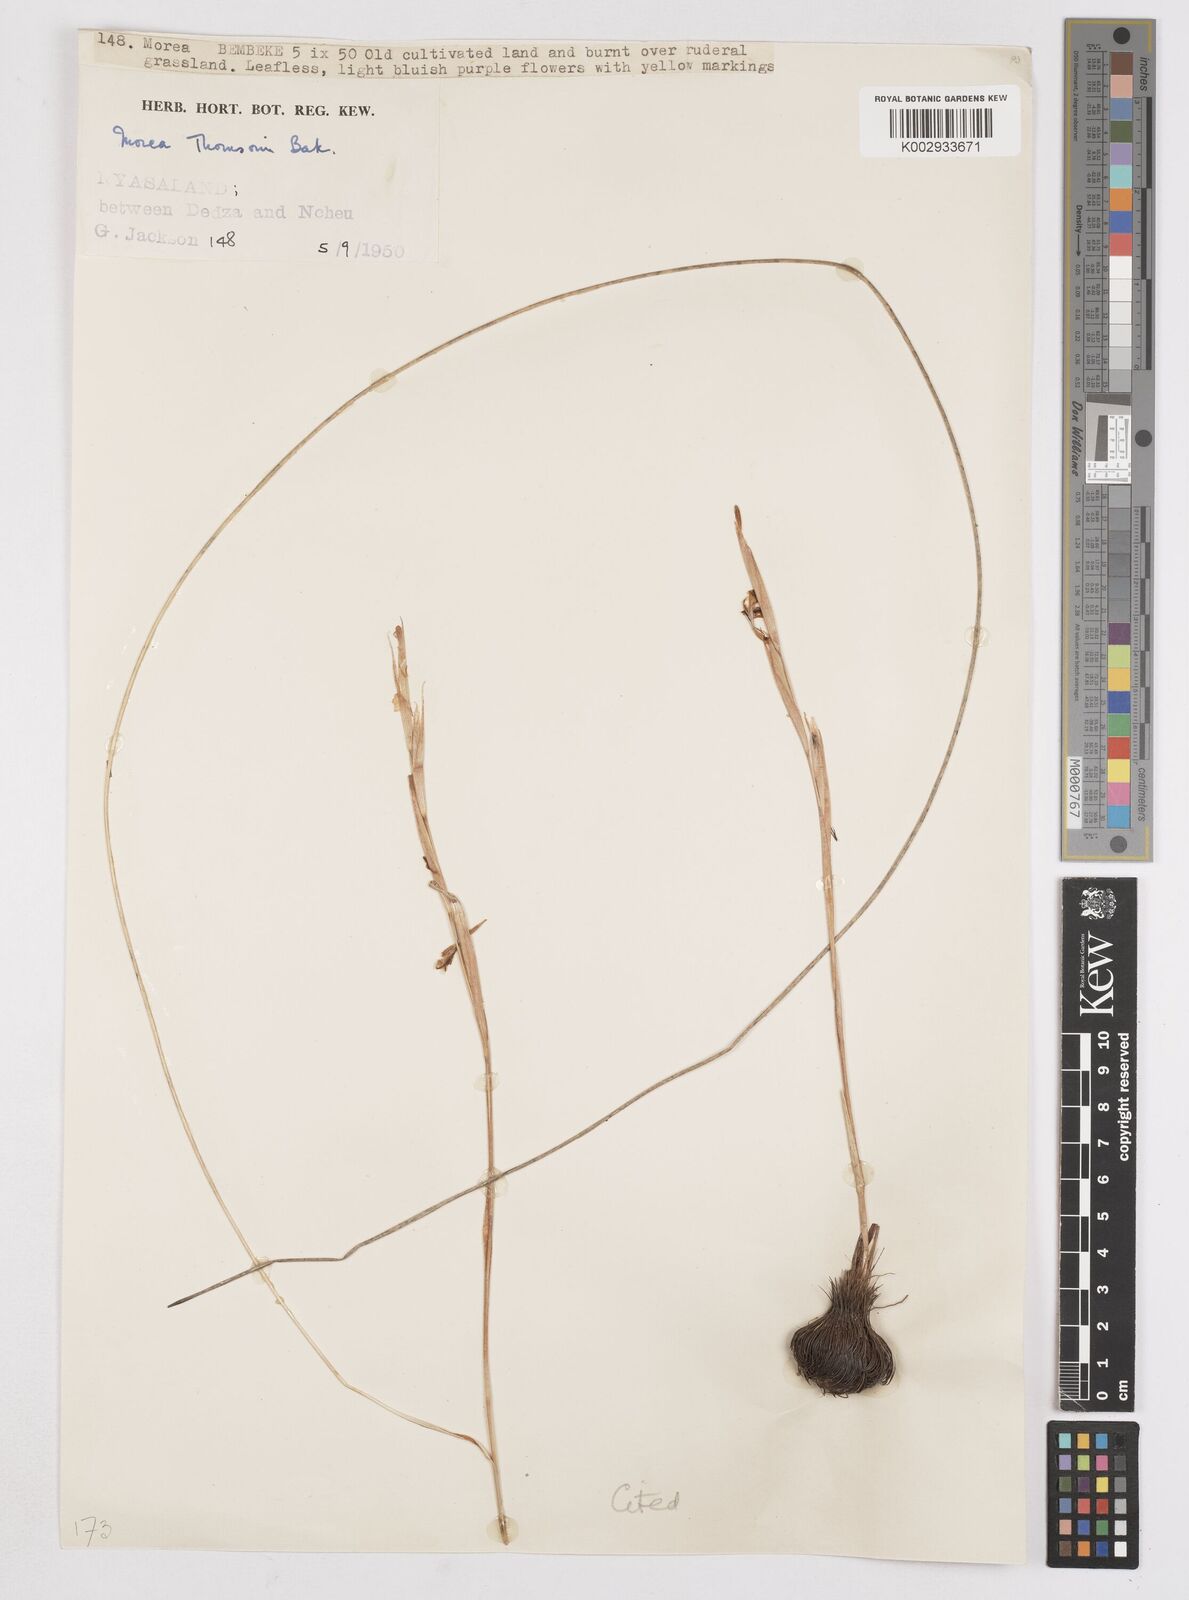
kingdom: Plantae
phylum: Tracheophyta
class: Liliopsida
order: Asparagales
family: Iridaceae
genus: Moraea
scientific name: Moraea thomsonii
